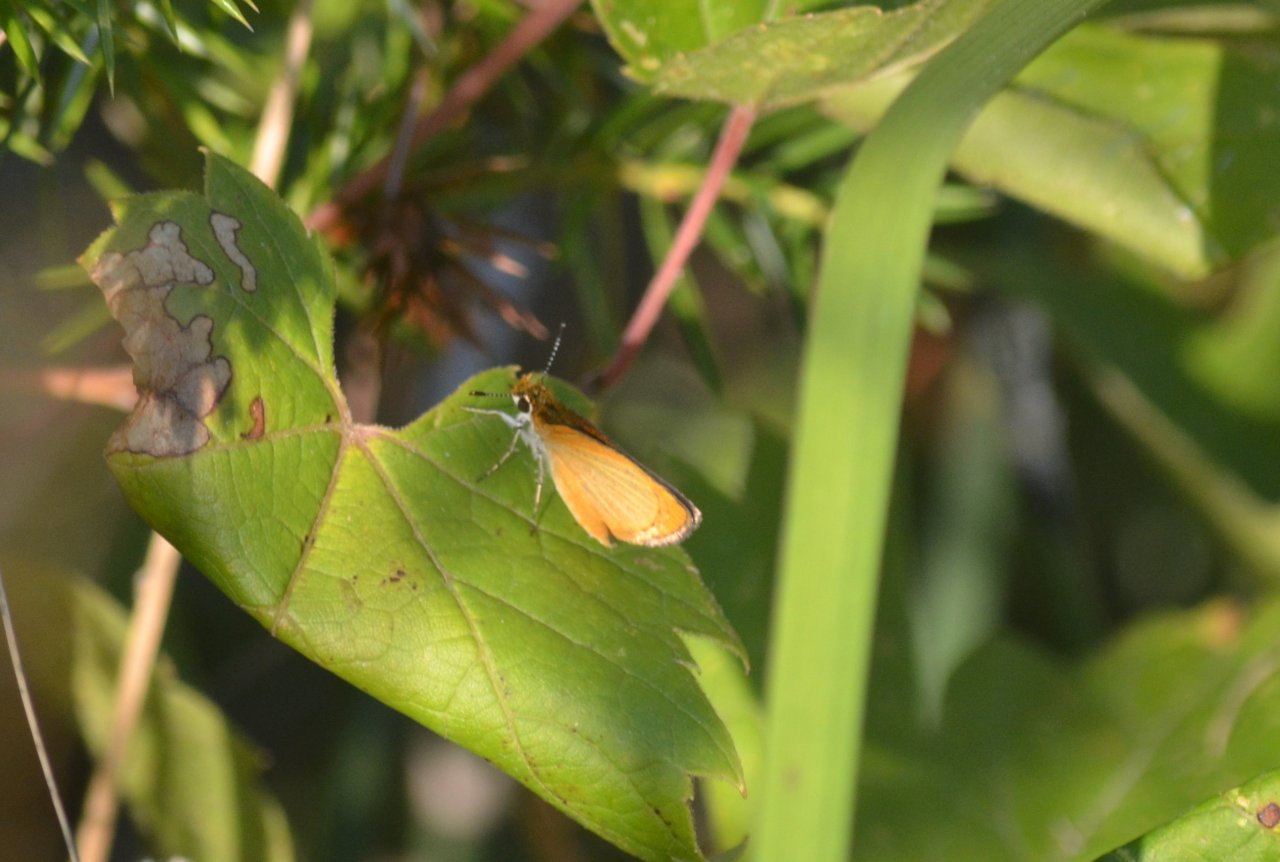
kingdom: Animalia
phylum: Arthropoda
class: Insecta
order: Lepidoptera
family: Hesperiidae
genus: Ancyloxypha
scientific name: Ancyloxypha numitor
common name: Least Skipper
